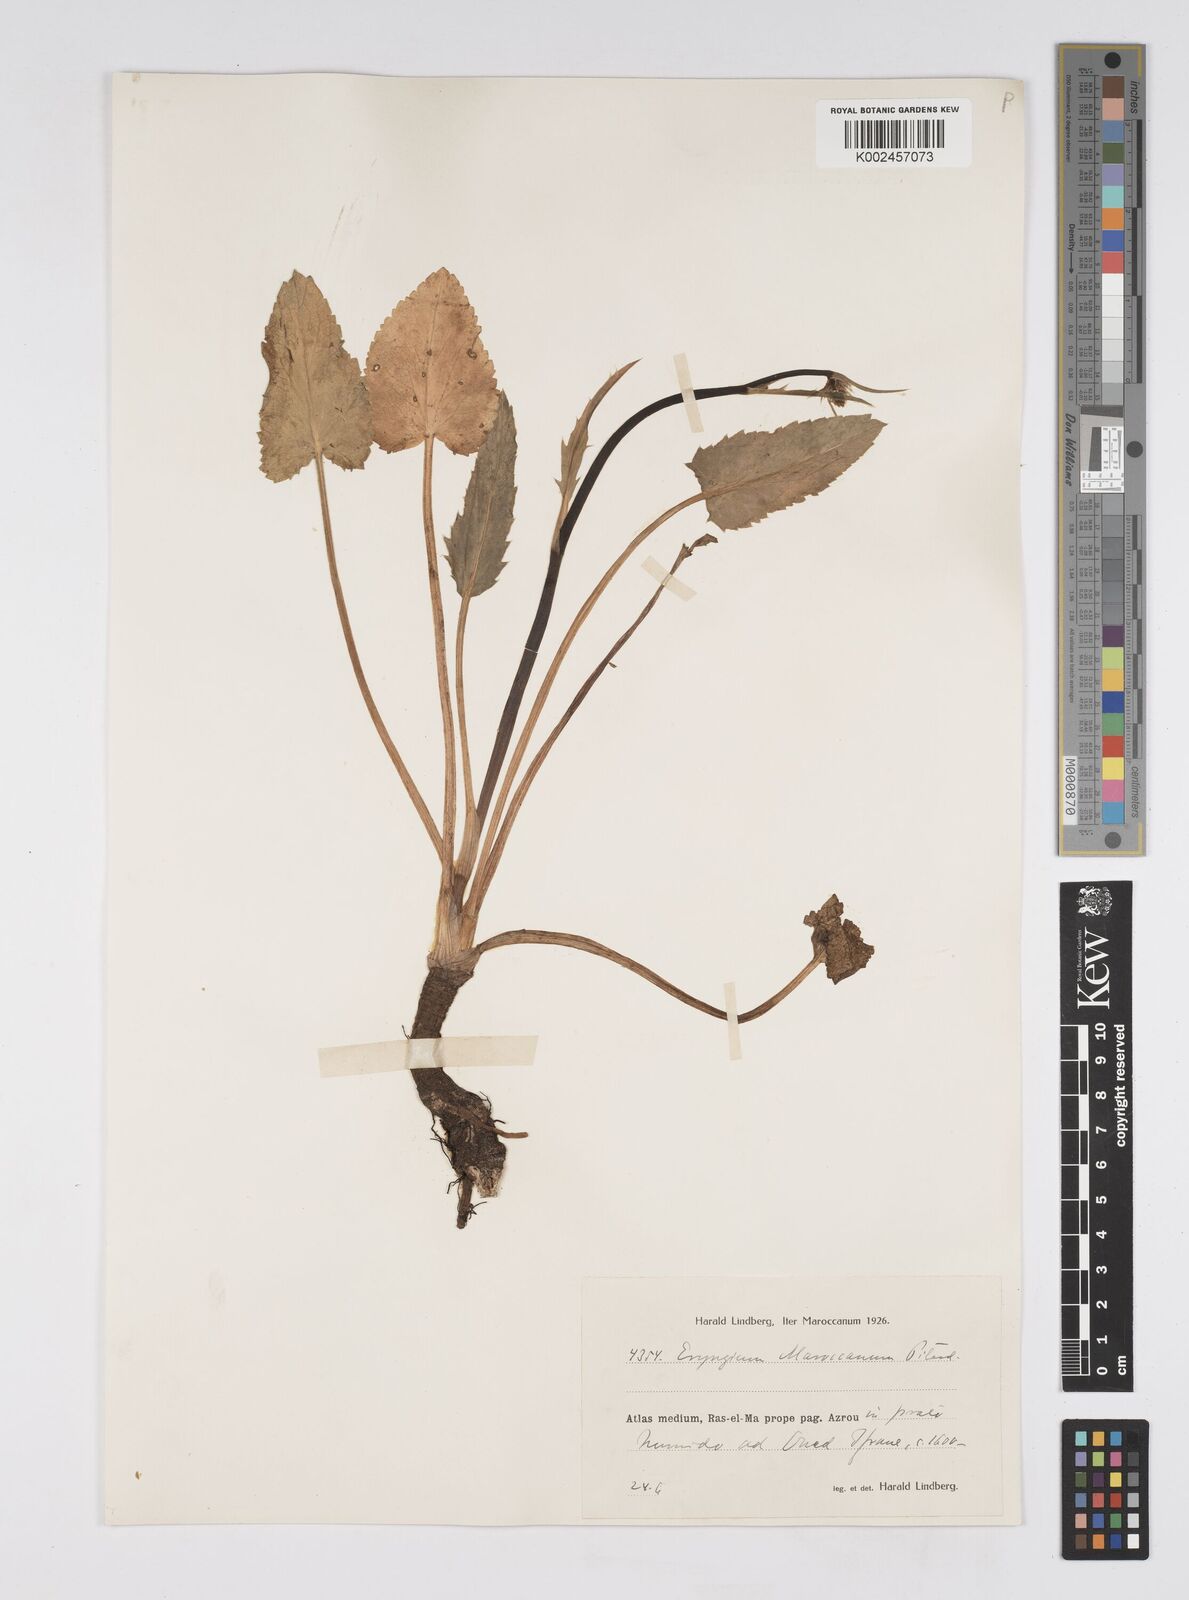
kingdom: Plantae
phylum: Tracheophyta
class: Magnoliopsida
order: Apiales
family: Apiaceae
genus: Eryngium
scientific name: Eryngium marocanum
